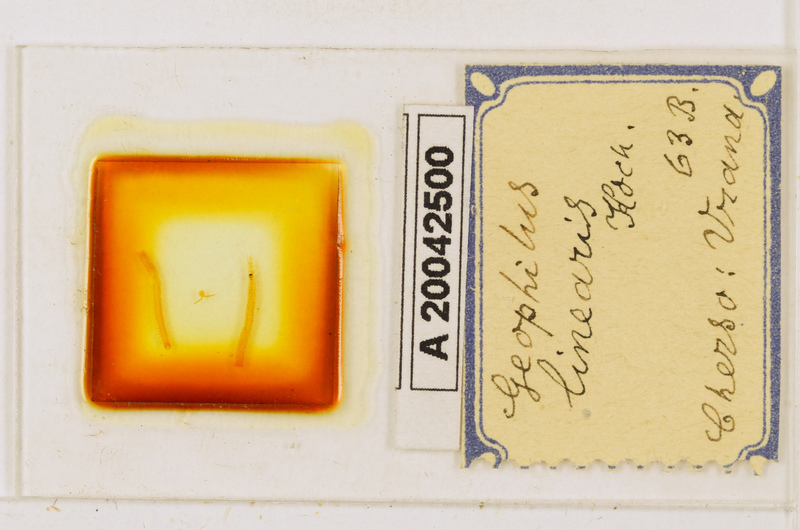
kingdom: Animalia
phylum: Arthropoda
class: Chilopoda
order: Geophilomorpha
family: Geophilidae
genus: Stenotaenia
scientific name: Stenotaenia linearis
